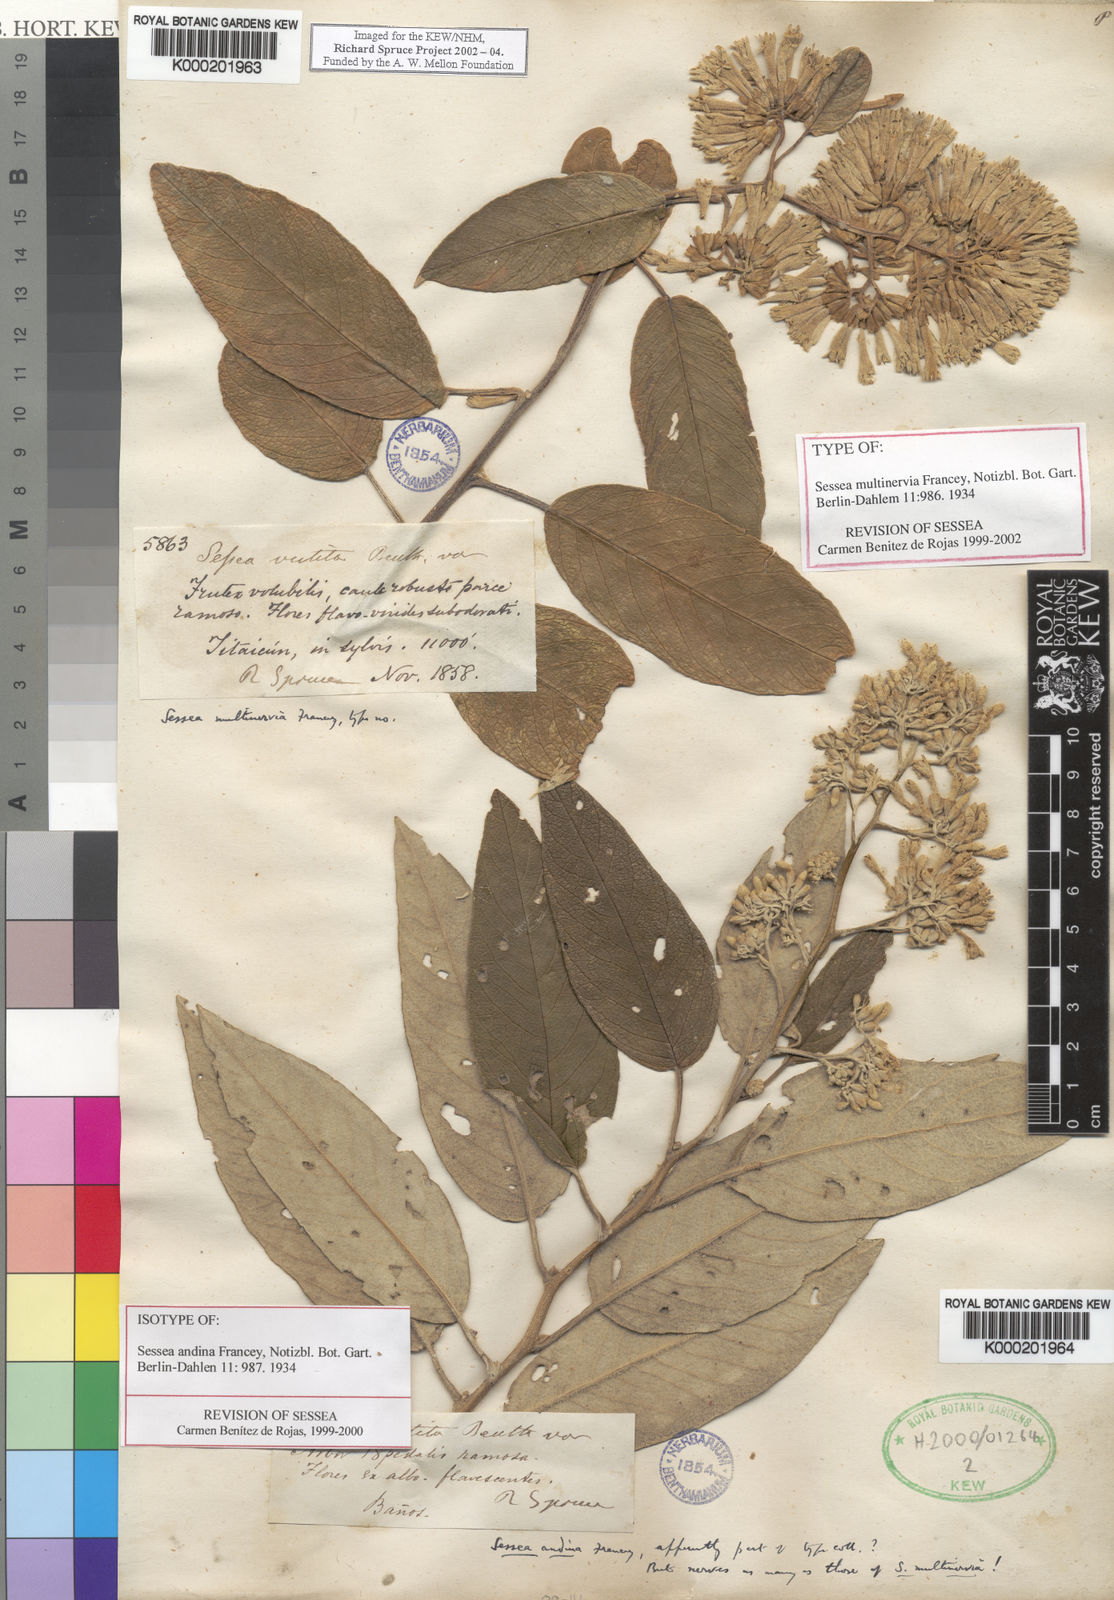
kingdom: Plantae
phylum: Tracheophyta
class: Magnoliopsida
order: Solanales
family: Solanaceae
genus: Sessea
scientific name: Sessea multinervia
